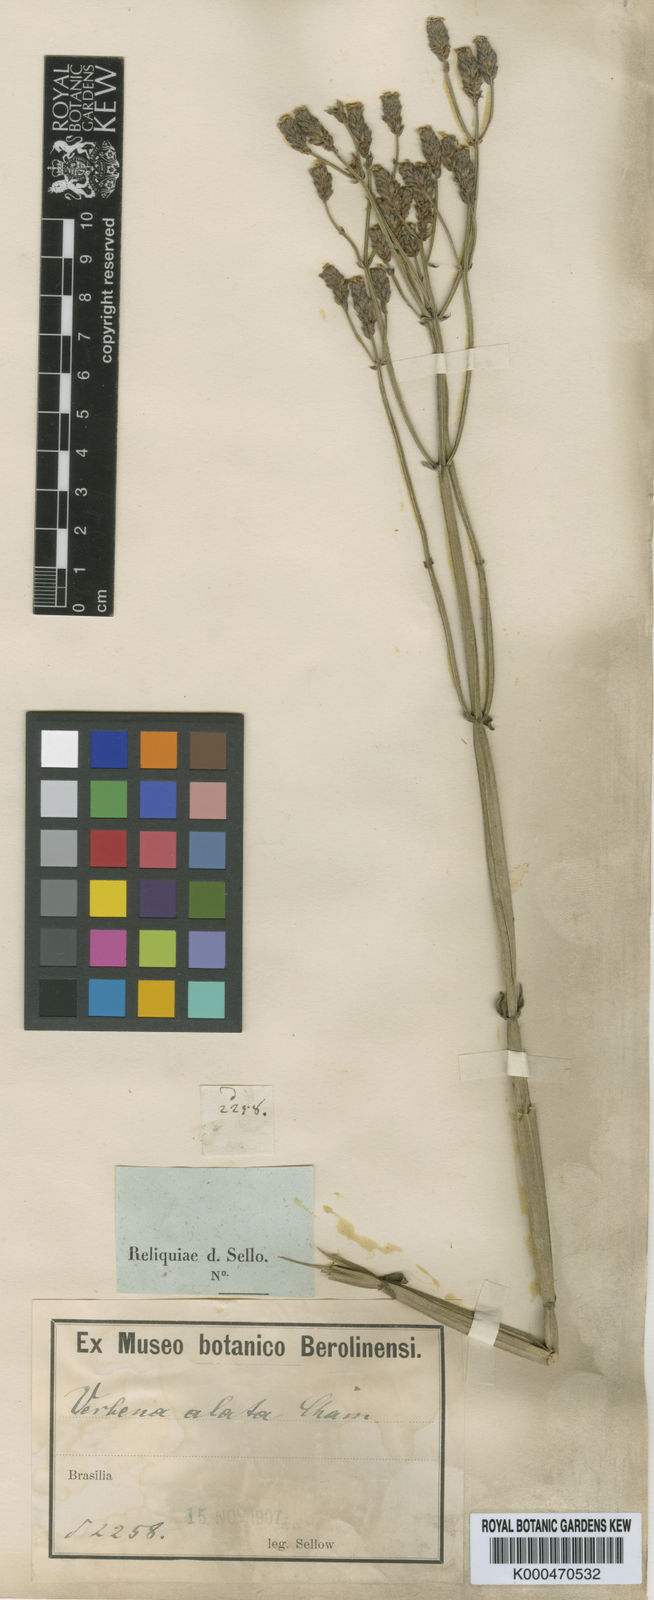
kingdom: Plantae
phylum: Tracheophyta
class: Magnoliopsida
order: Lamiales
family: Verbenaceae
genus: Verbena
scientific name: Verbena alata
